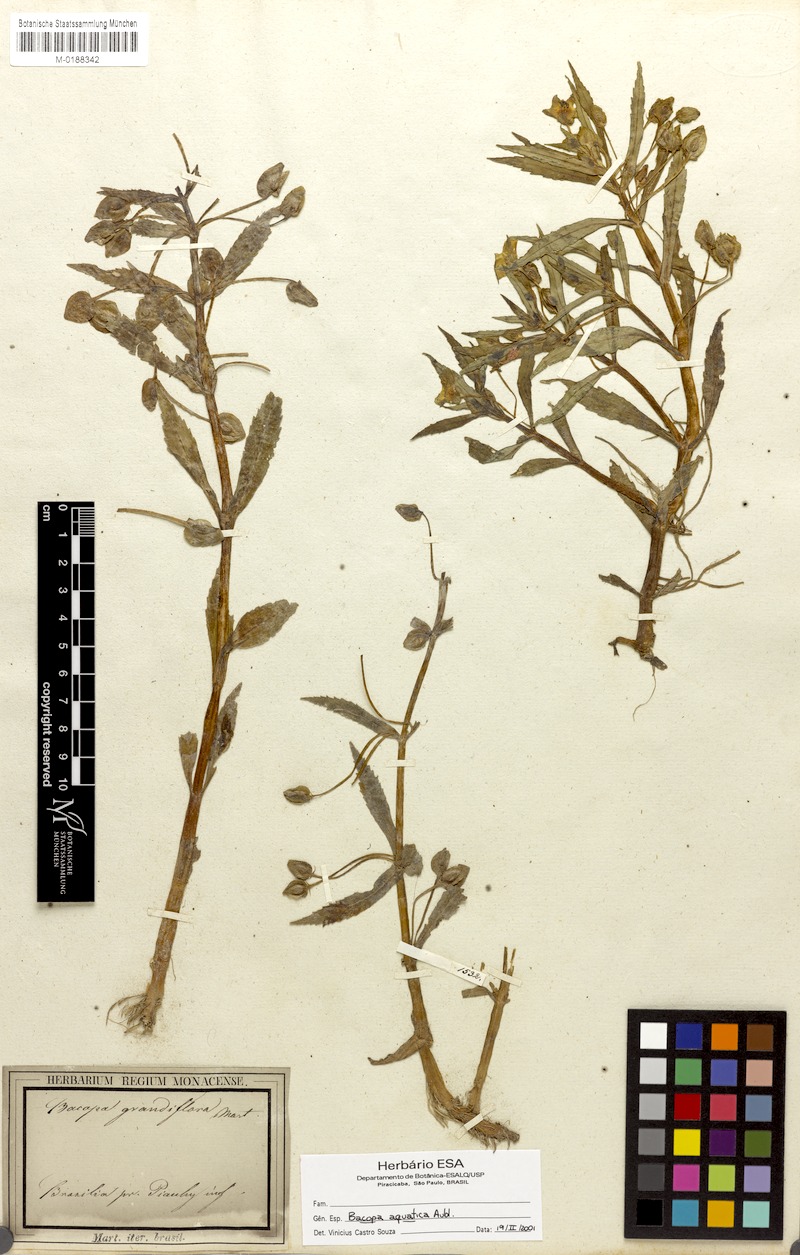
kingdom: Plantae
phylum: Tracheophyta
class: Magnoliopsida
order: Lamiales
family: Plantaginaceae
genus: Bacopa
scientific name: Bacopa aquatica
